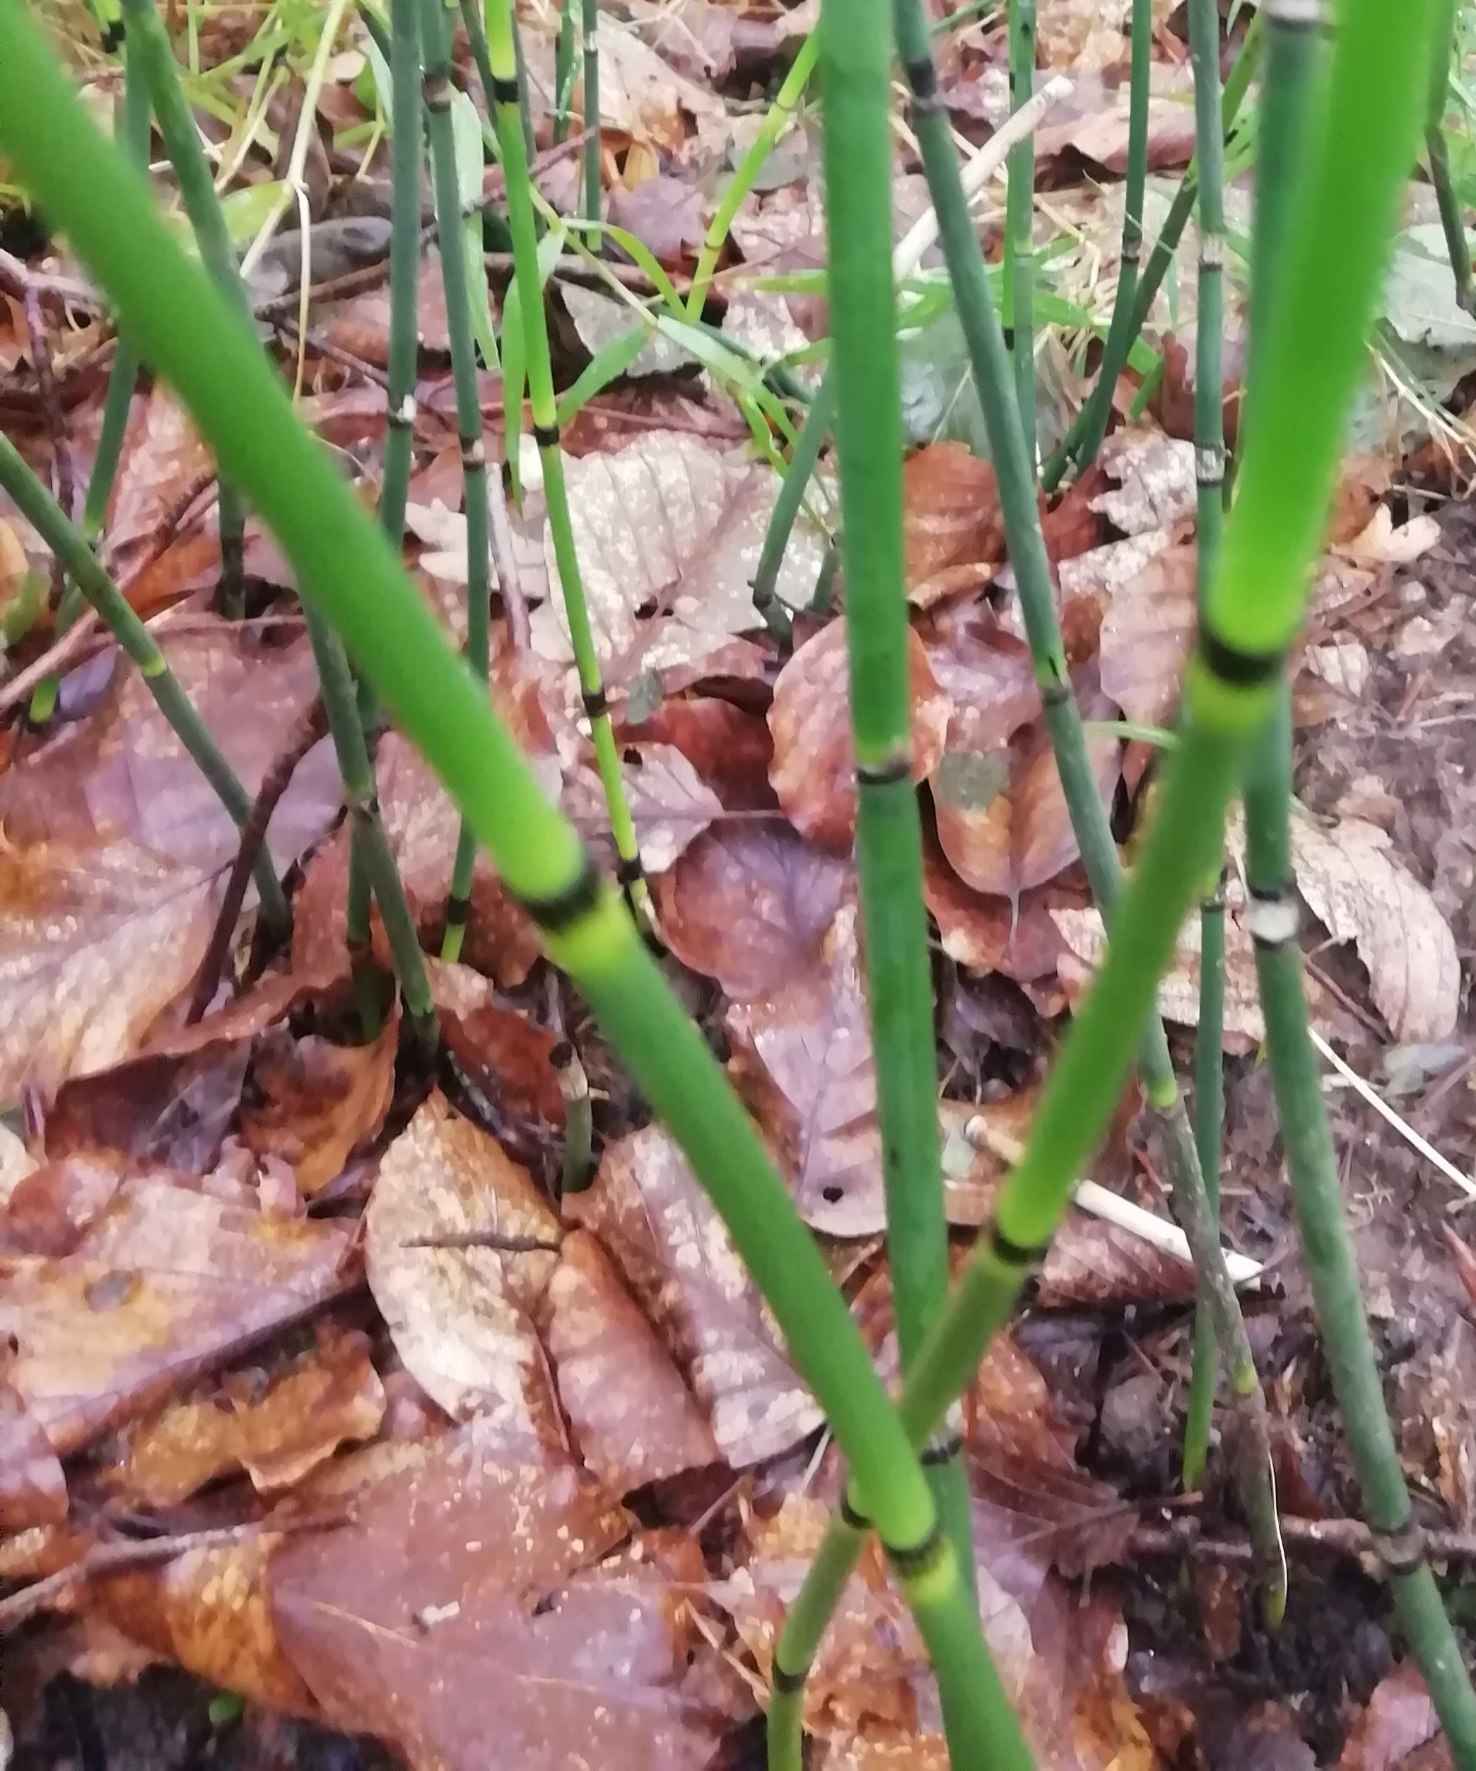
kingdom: Plantae
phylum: Tracheophyta
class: Polypodiopsida
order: Equisetales
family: Equisetaceae
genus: Equisetum
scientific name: Equisetum hyemale
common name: Skavgræs
